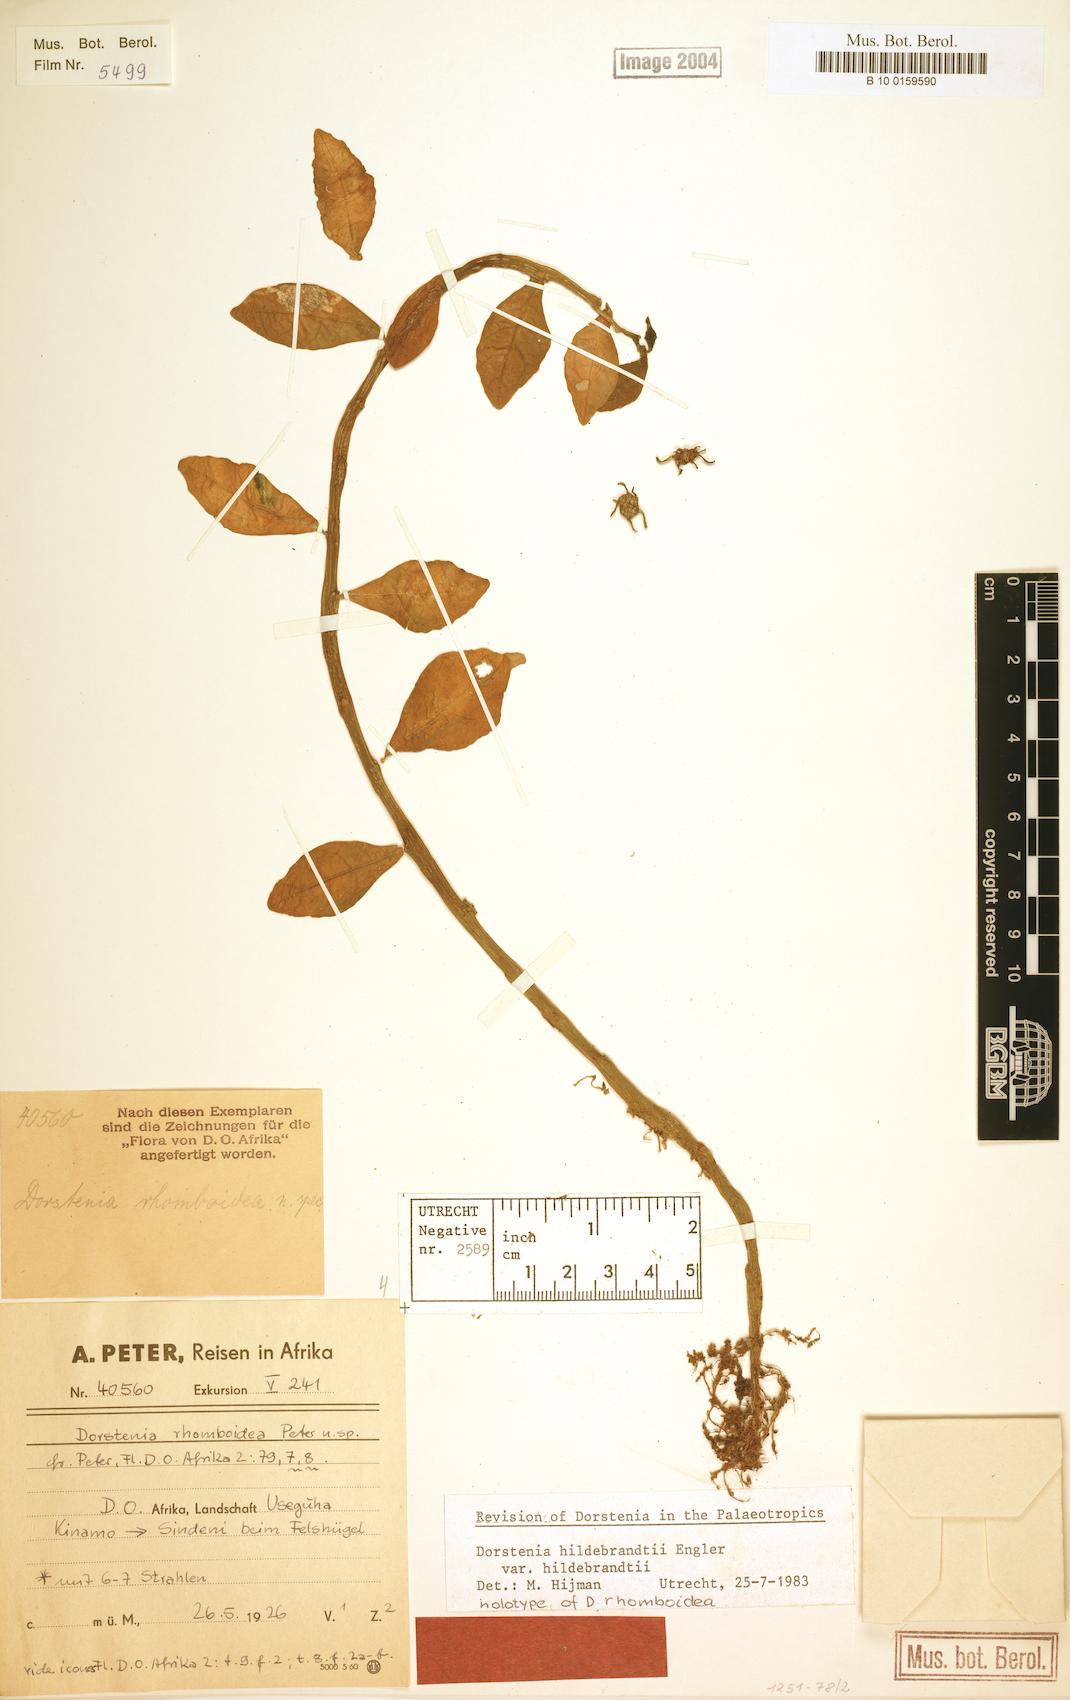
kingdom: Plantae
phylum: Tracheophyta
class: Magnoliopsida
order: Rosales
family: Moraceae
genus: Dorstenia
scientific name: Dorstenia hildebrandtii
